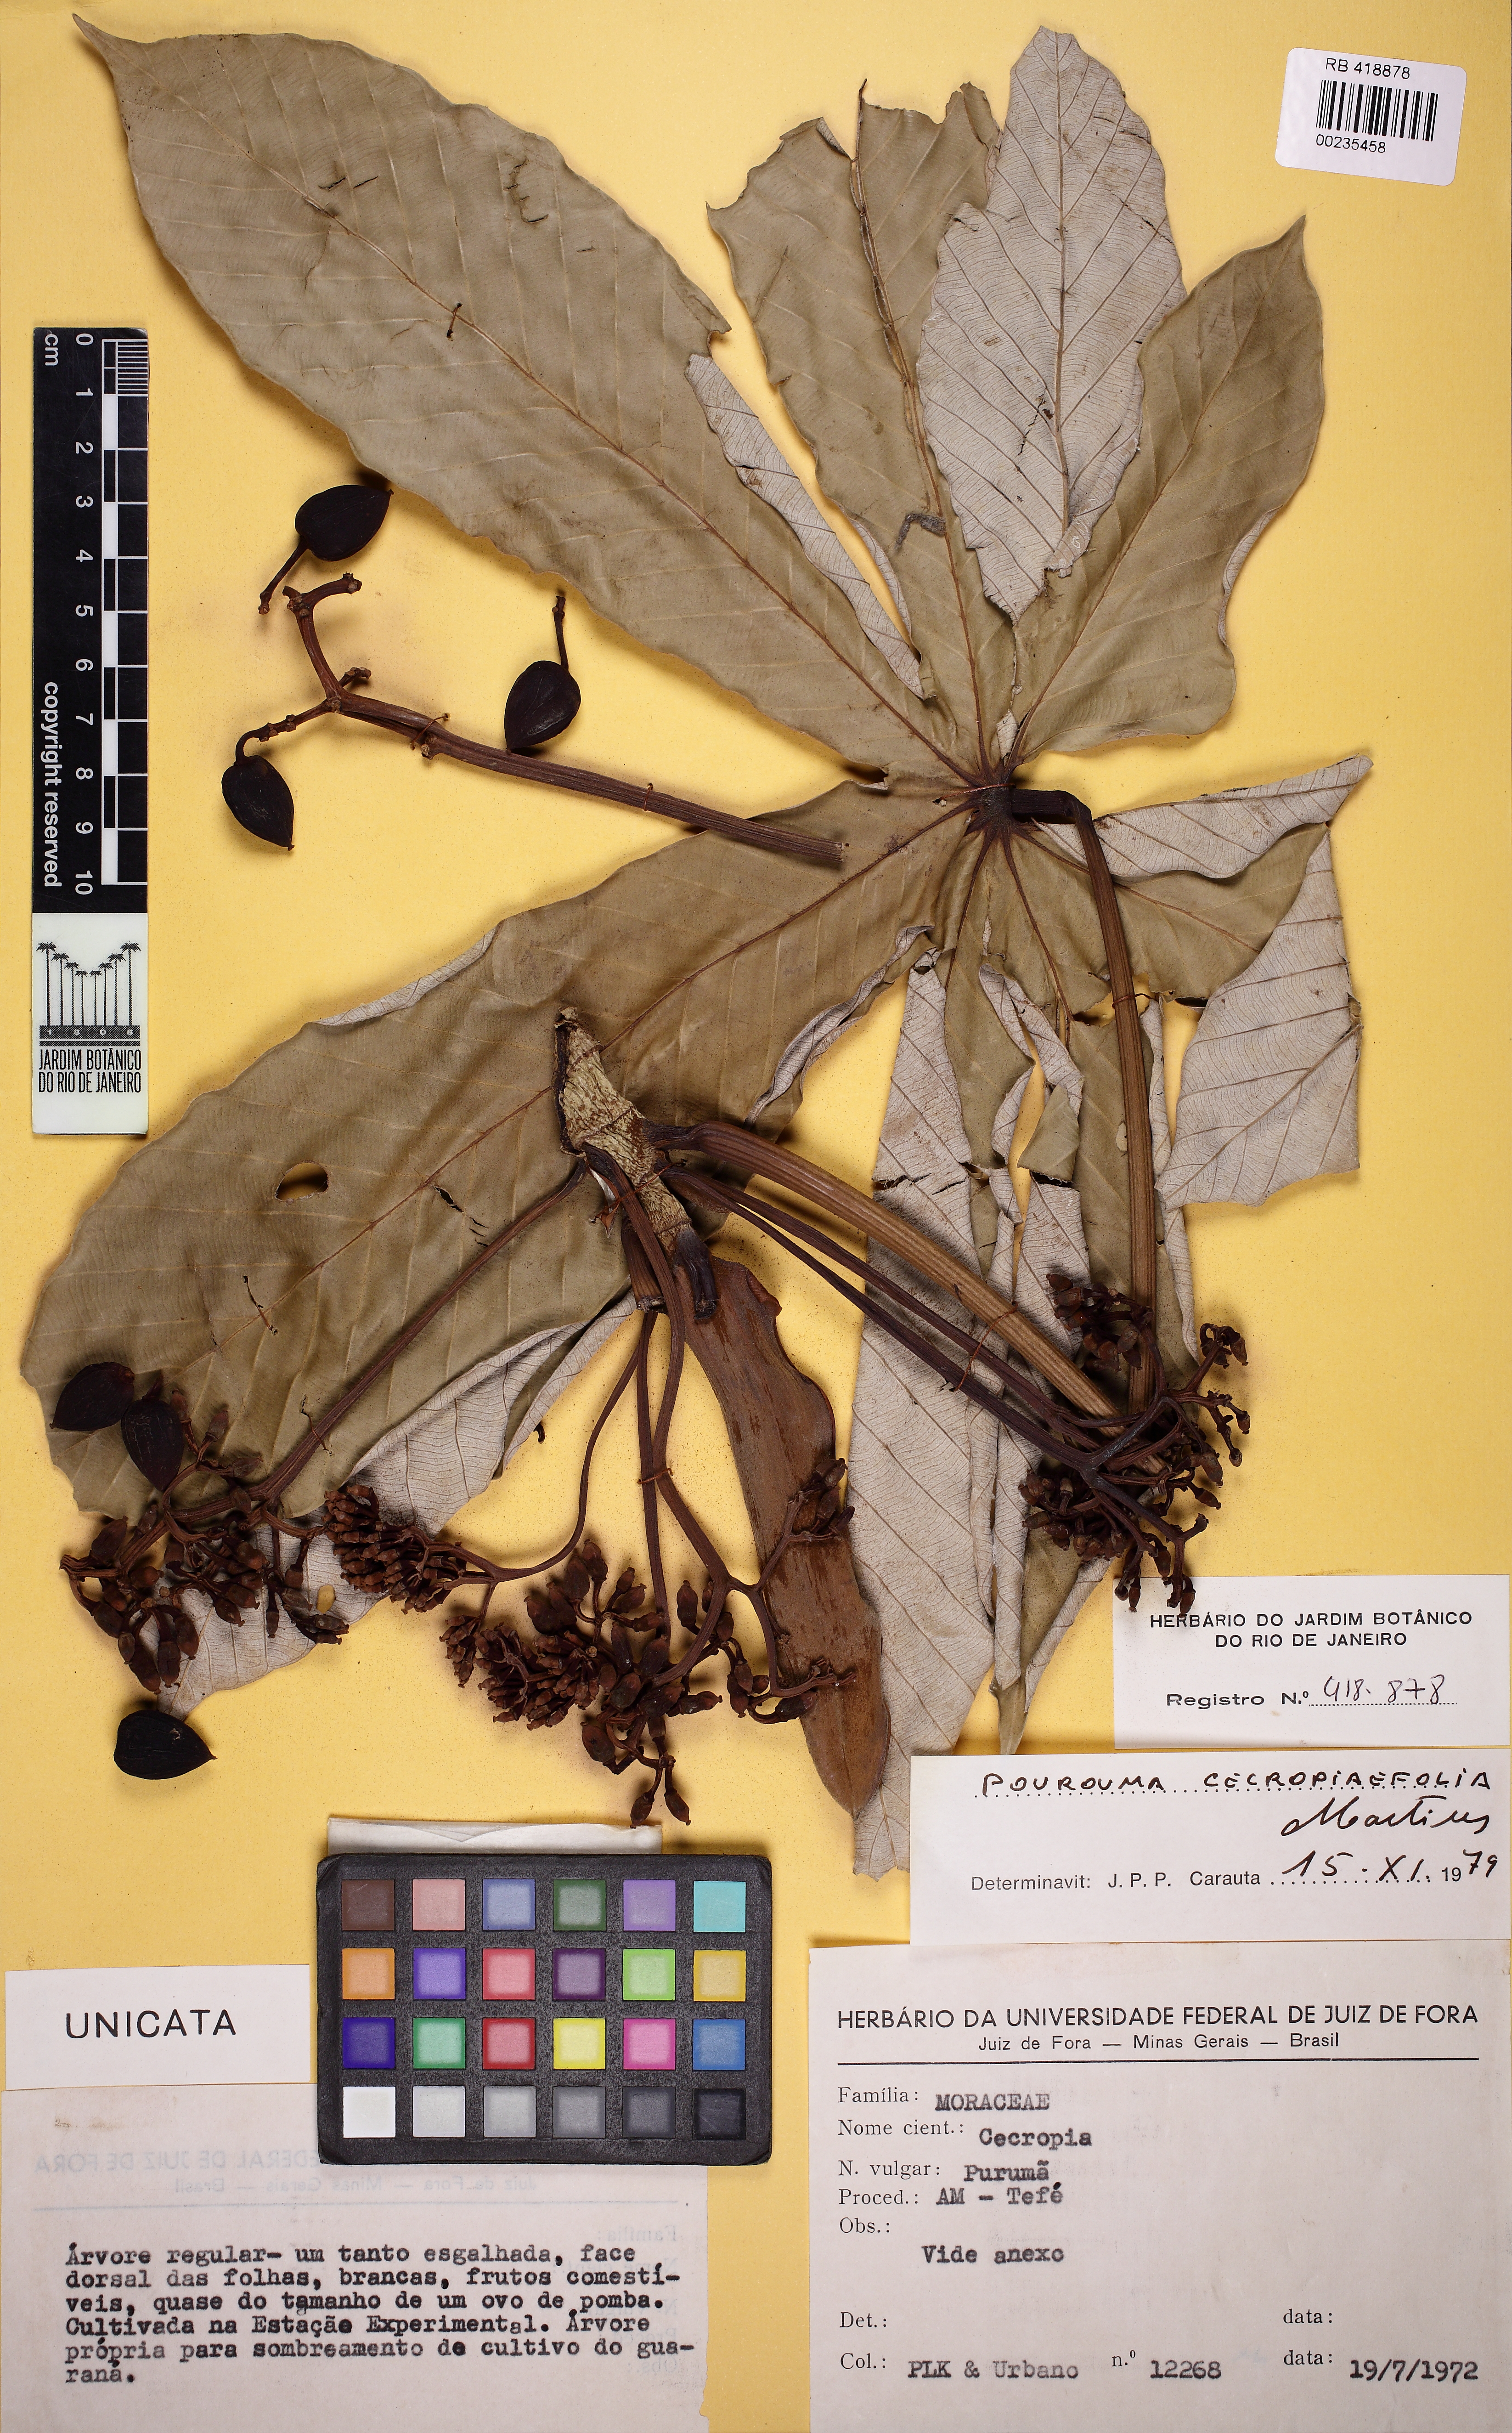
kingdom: Plantae
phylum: Tracheophyta
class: Magnoliopsida
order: Rosales
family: Urticaceae
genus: Pourouma
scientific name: Pourouma cecropiifolia
